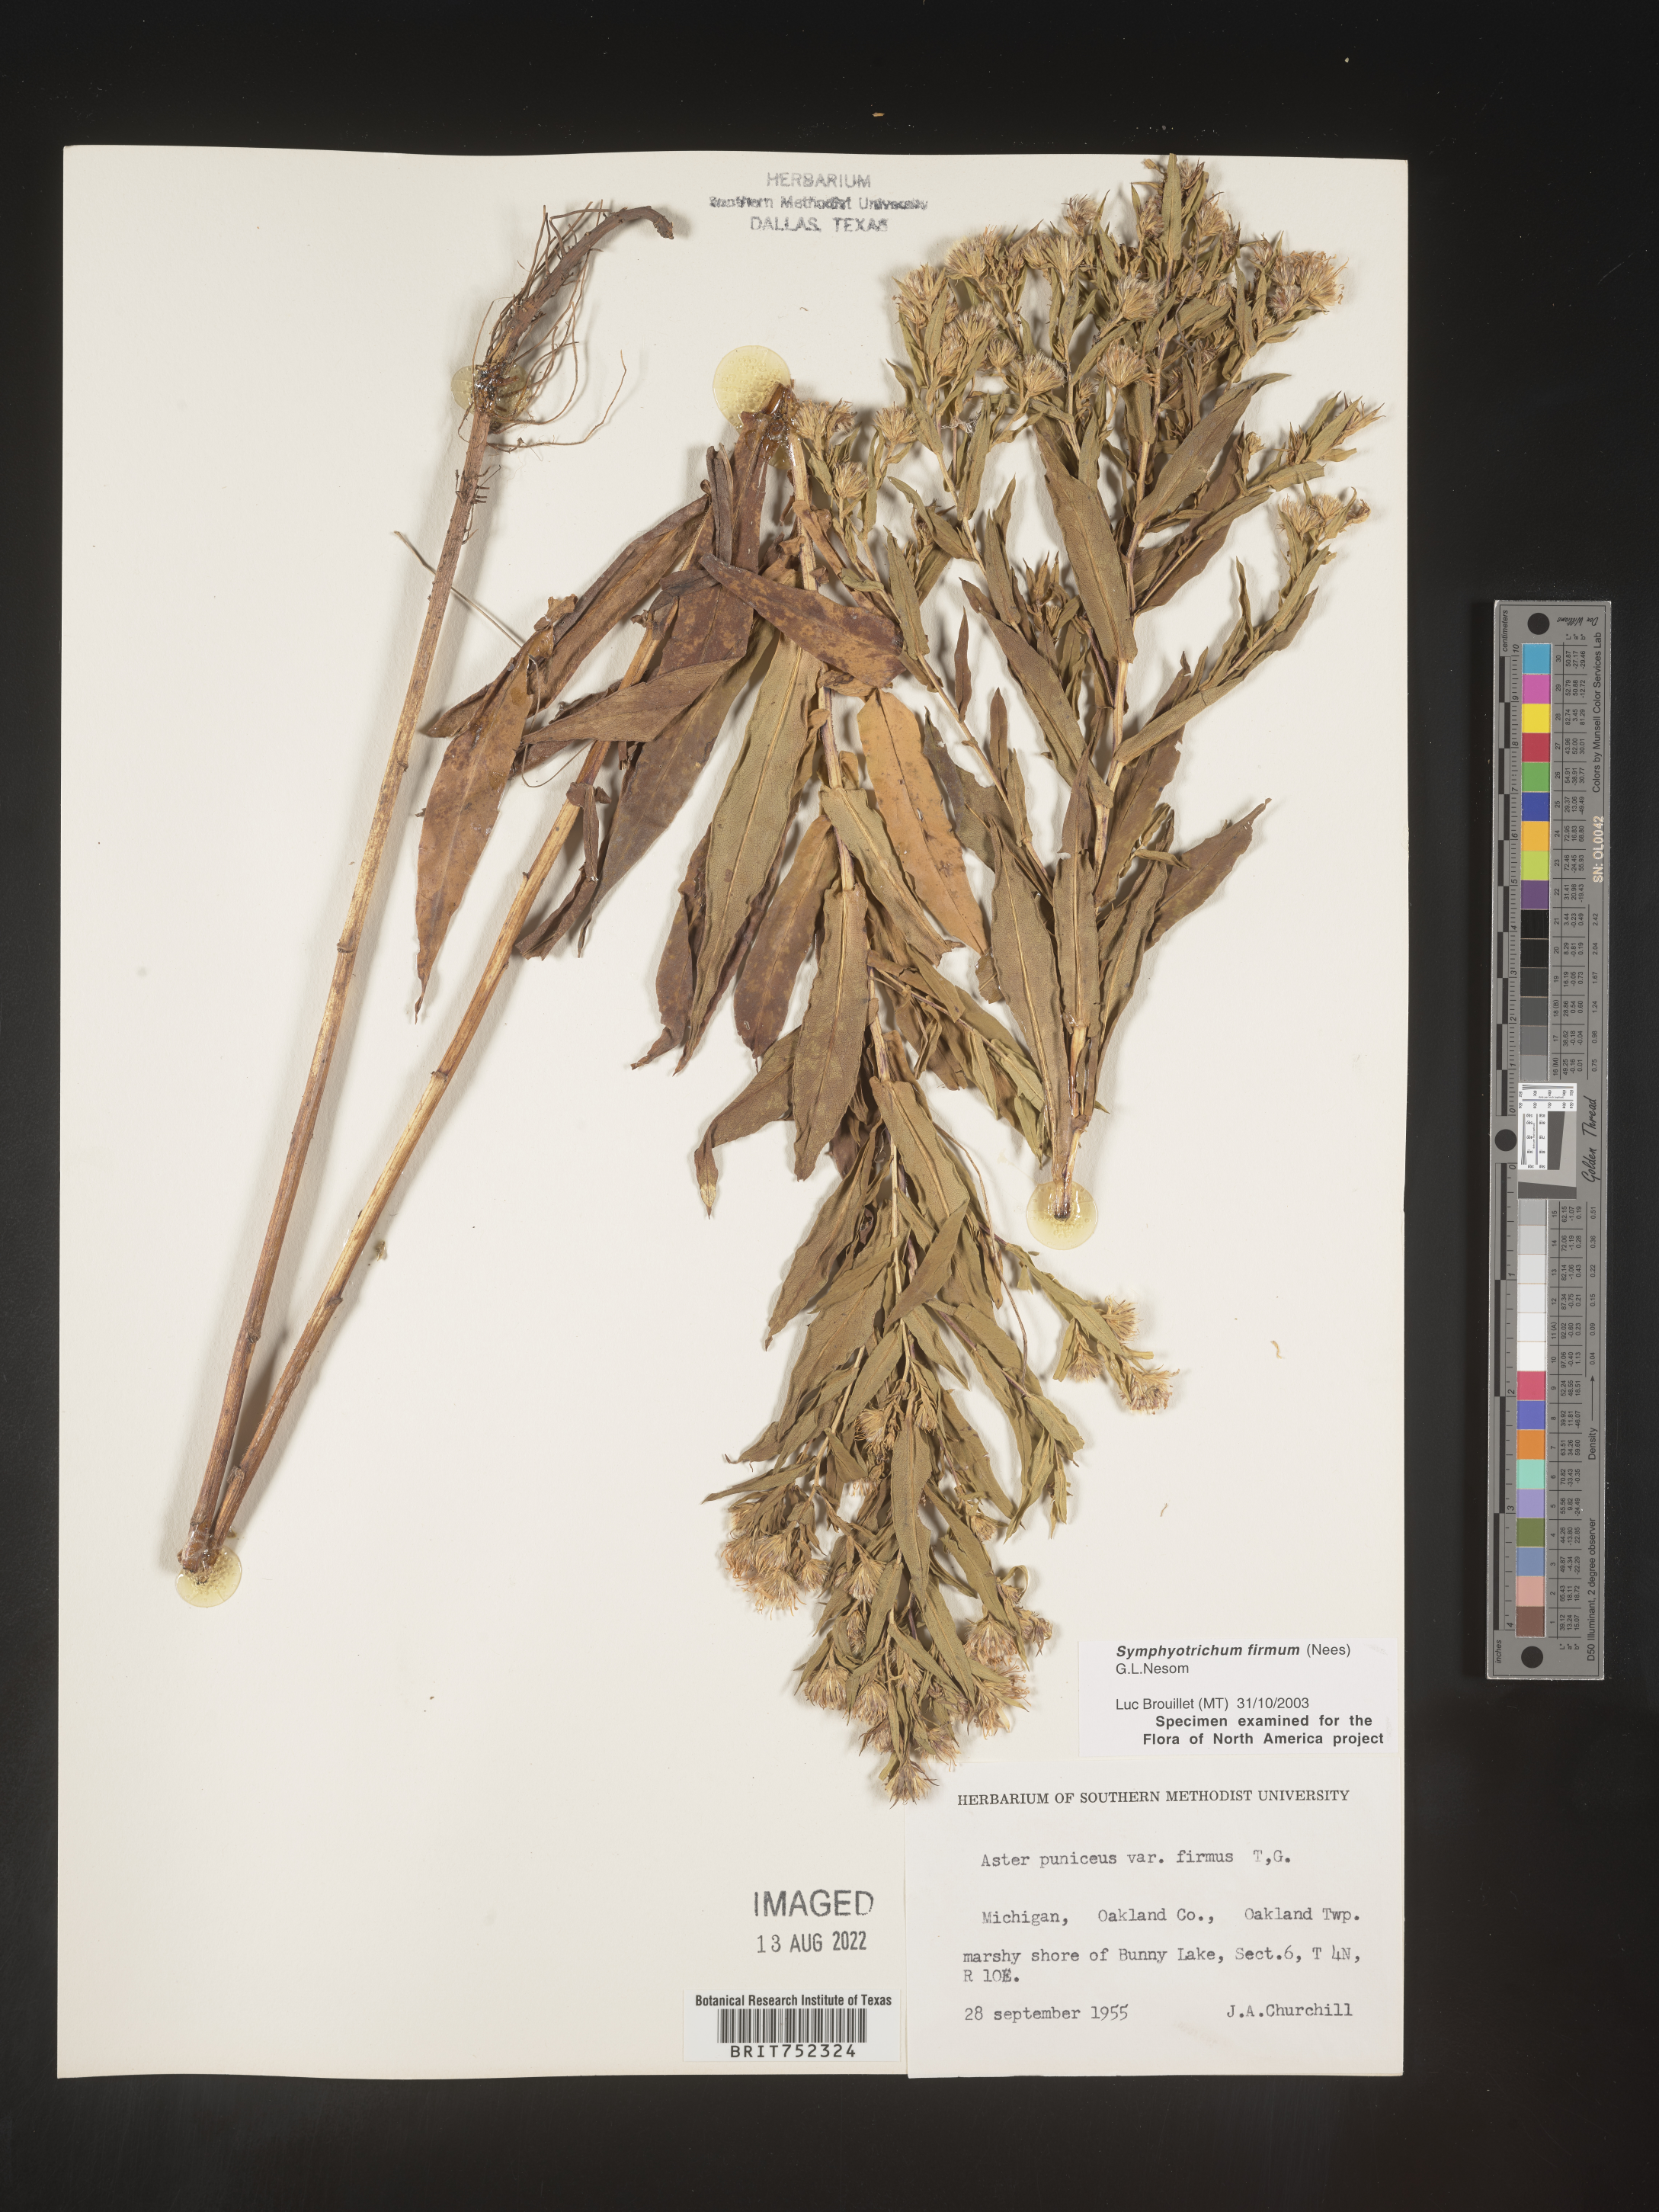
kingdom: Plantae
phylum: Tracheophyta
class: Magnoliopsida
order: Asterales
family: Asteraceae
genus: Symphyotrichum
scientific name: Symphyotrichum firmum
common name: Shining aster
